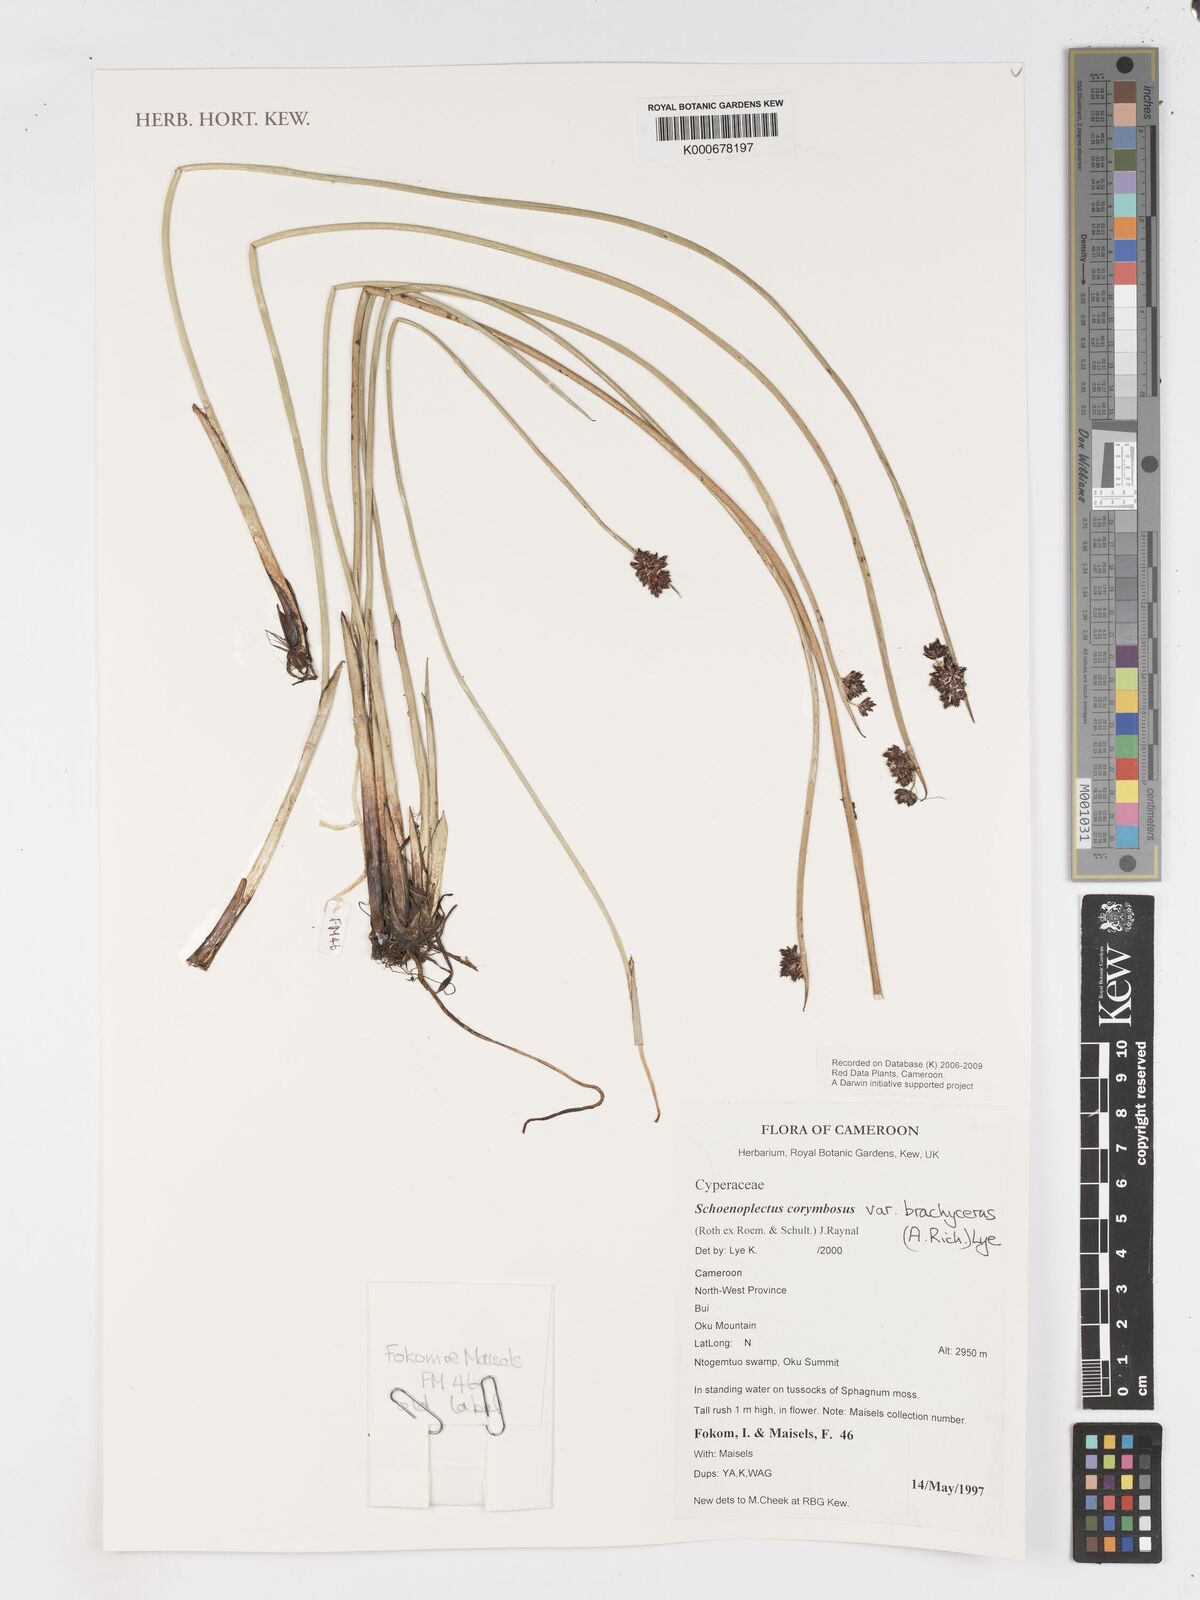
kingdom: Plantae
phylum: Tracheophyta
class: Liliopsida
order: Poales
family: Cyperaceae
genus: Schoenoplectiella
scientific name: Schoenoplectiella brachyceras
